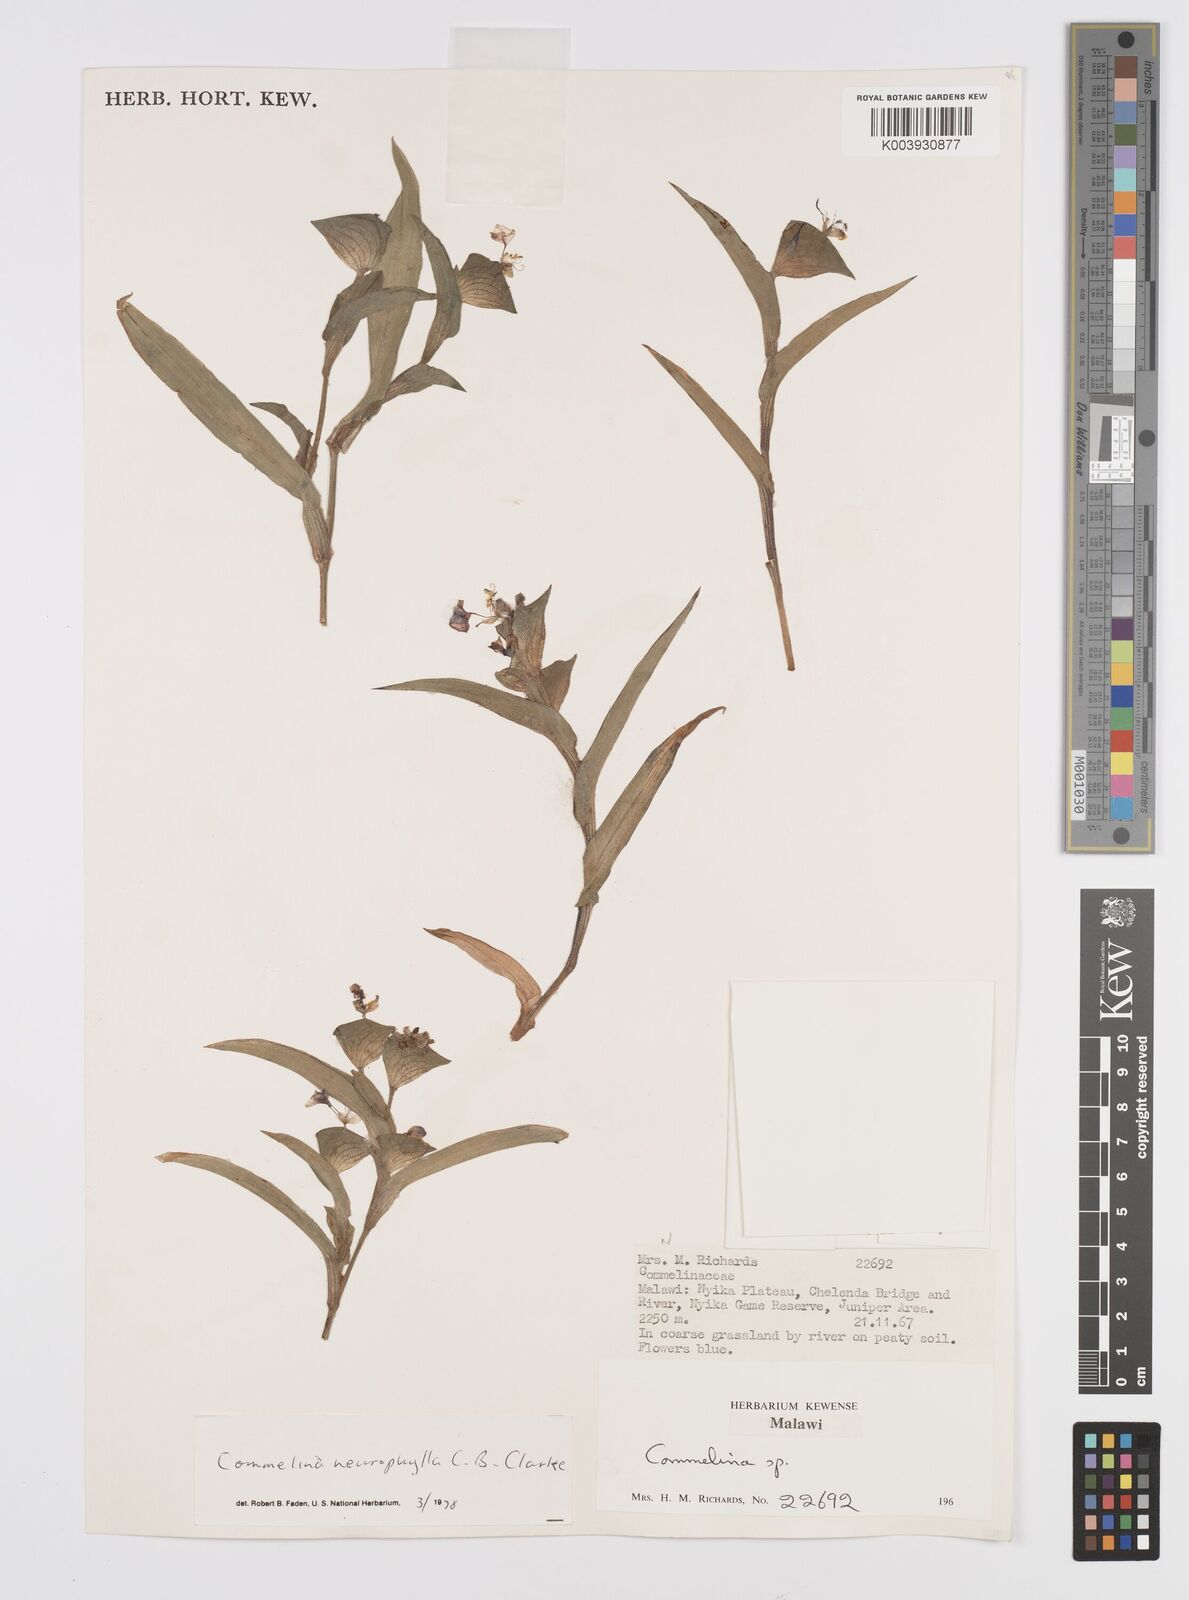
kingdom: Plantae
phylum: Tracheophyta
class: Liliopsida
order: Commelinales
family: Commelinaceae
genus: Commelina
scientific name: Commelina neurophylla
